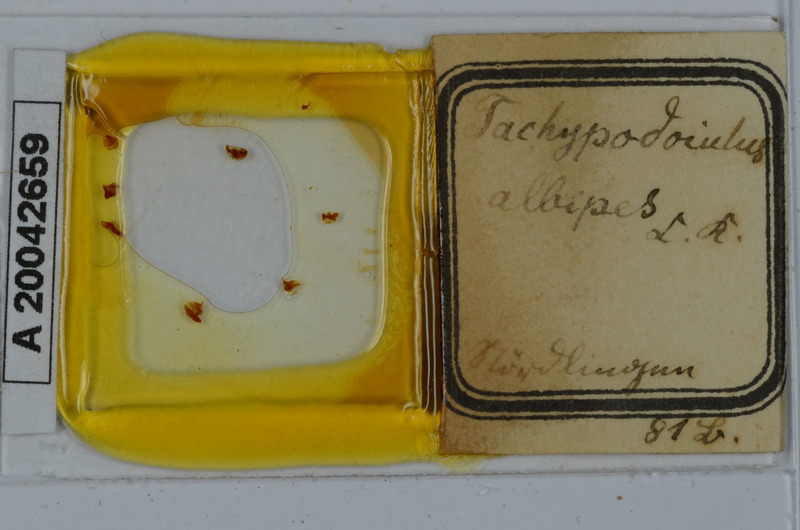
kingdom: Animalia
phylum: Arthropoda
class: Diplopoda
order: Julida
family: Julidae
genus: Tachypodoiulus
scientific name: Tachypodoiulus niger
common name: White-legged snake millipede
